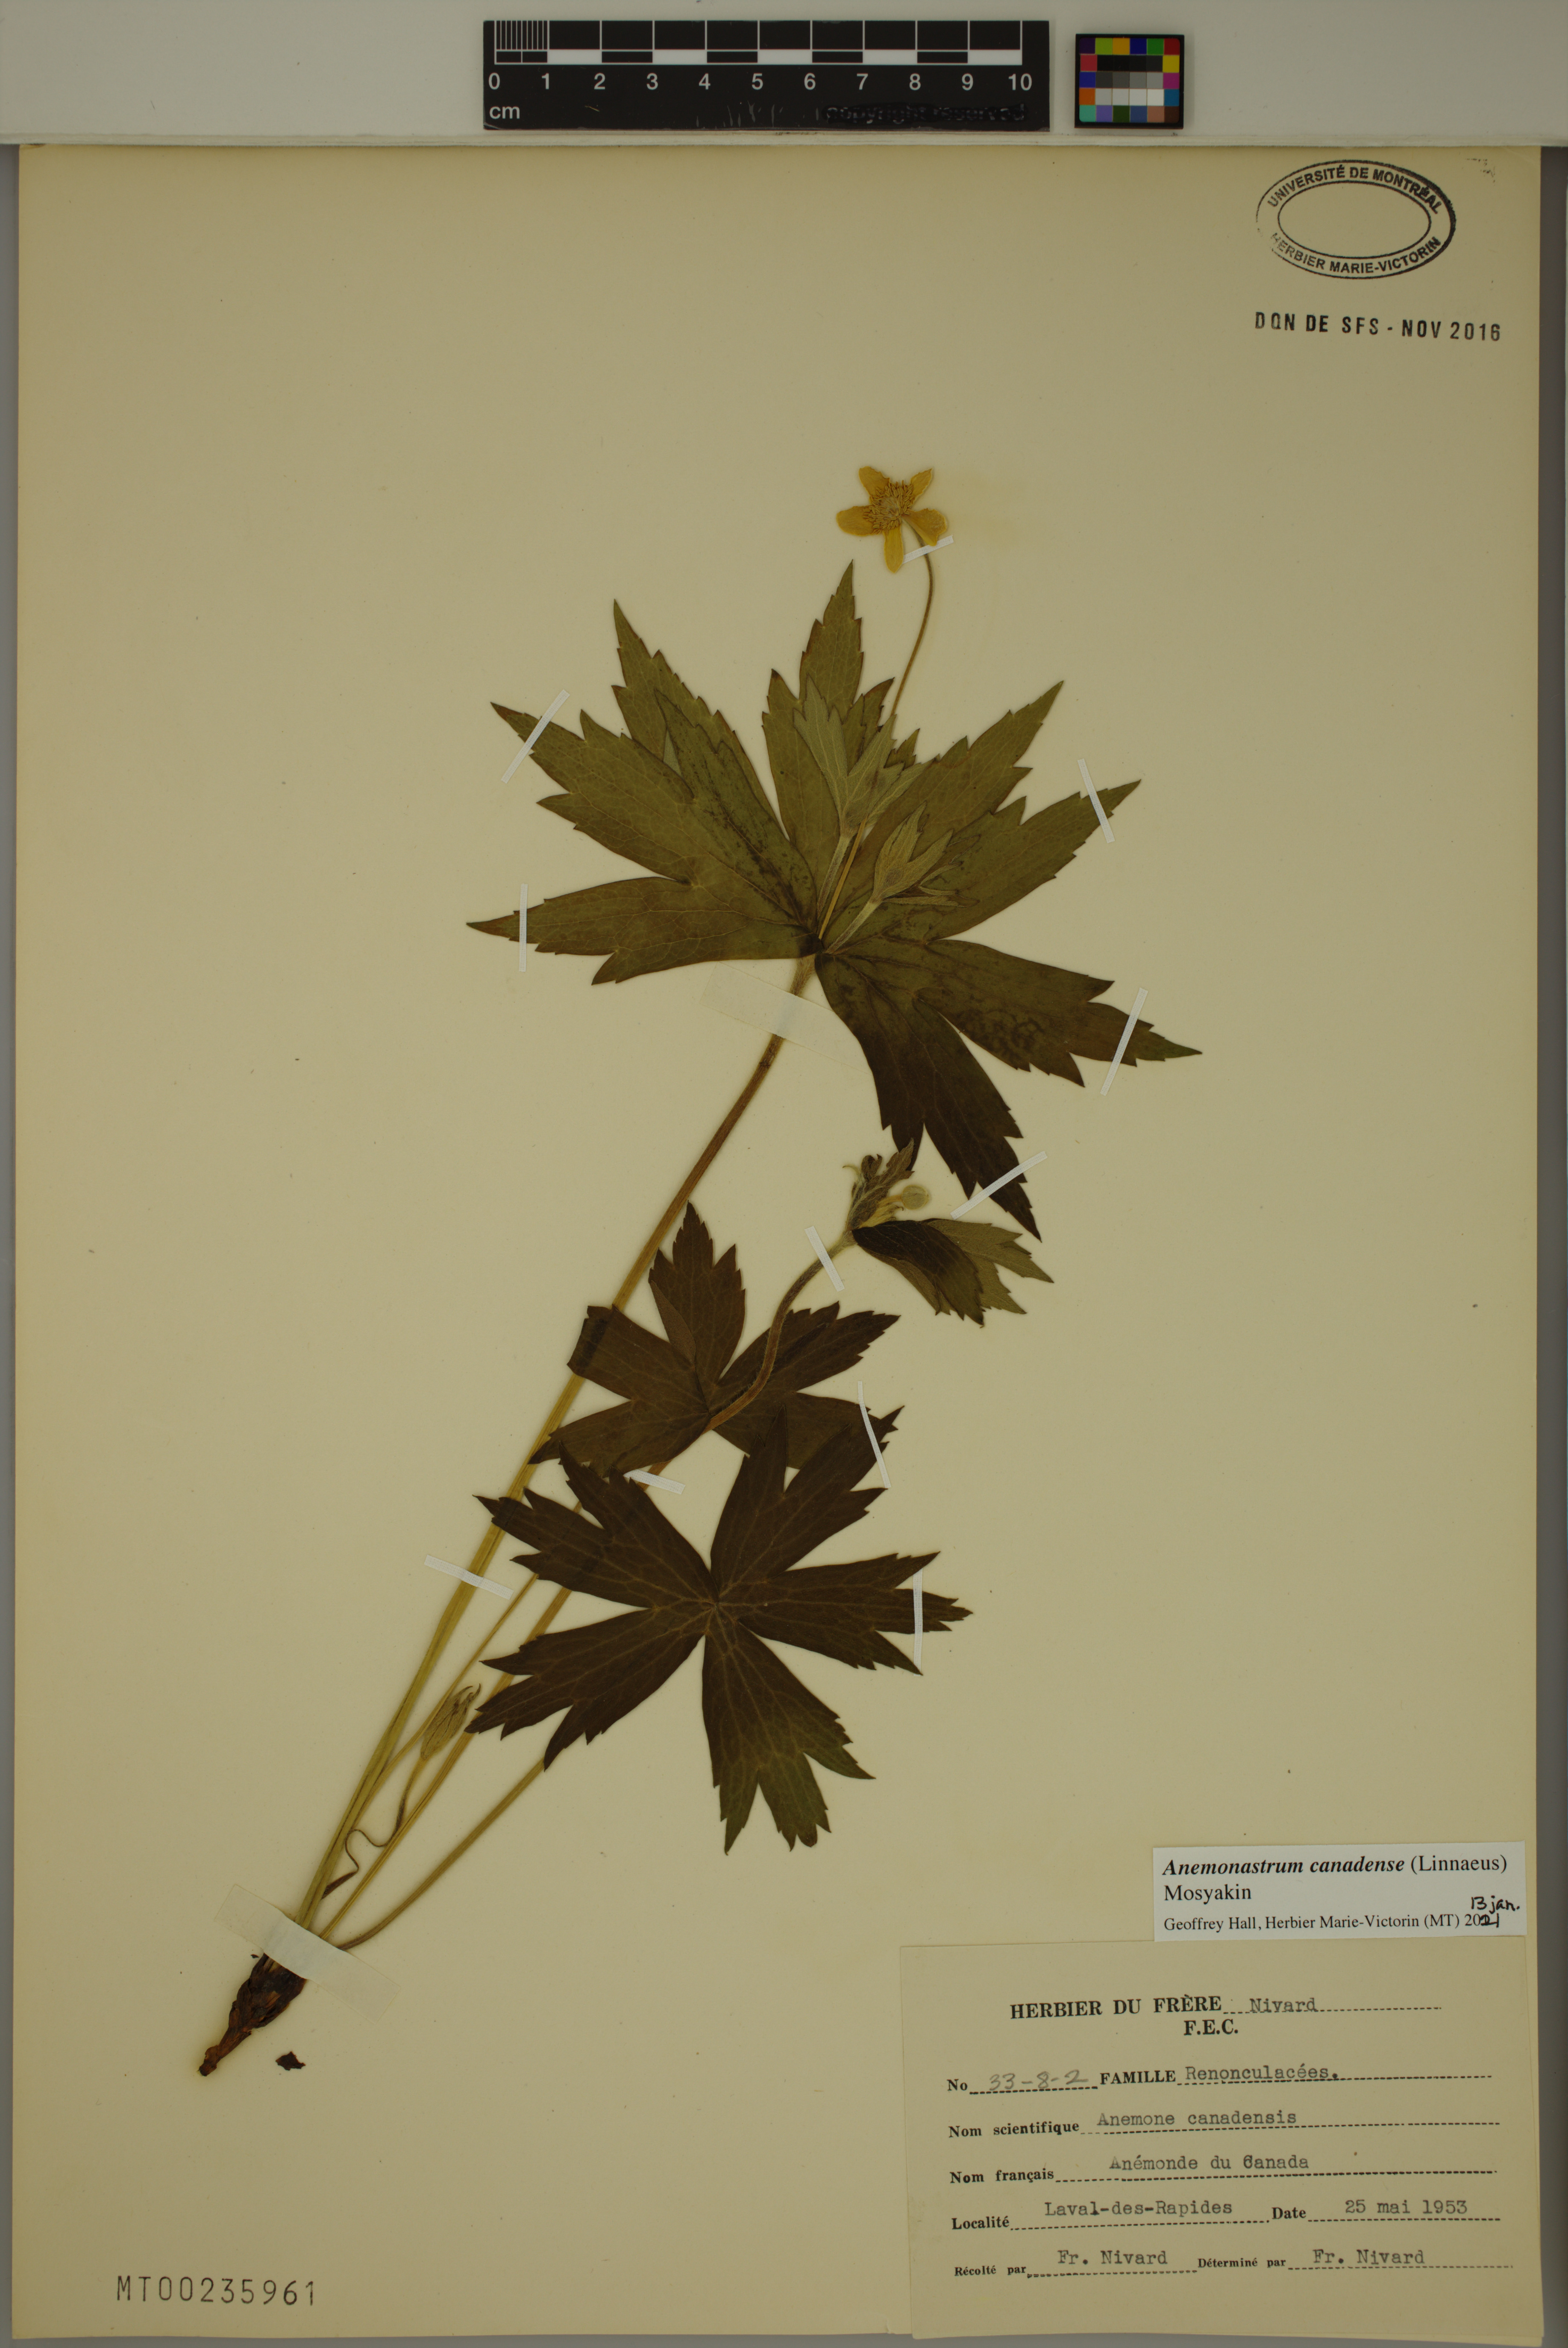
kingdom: Plantae
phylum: Tracheophyta
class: Magnoliopsida
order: Ranunculales
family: Ranunculaceae
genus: Anemonastrum
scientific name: Anemonastrum canadense
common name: Canada anemone
